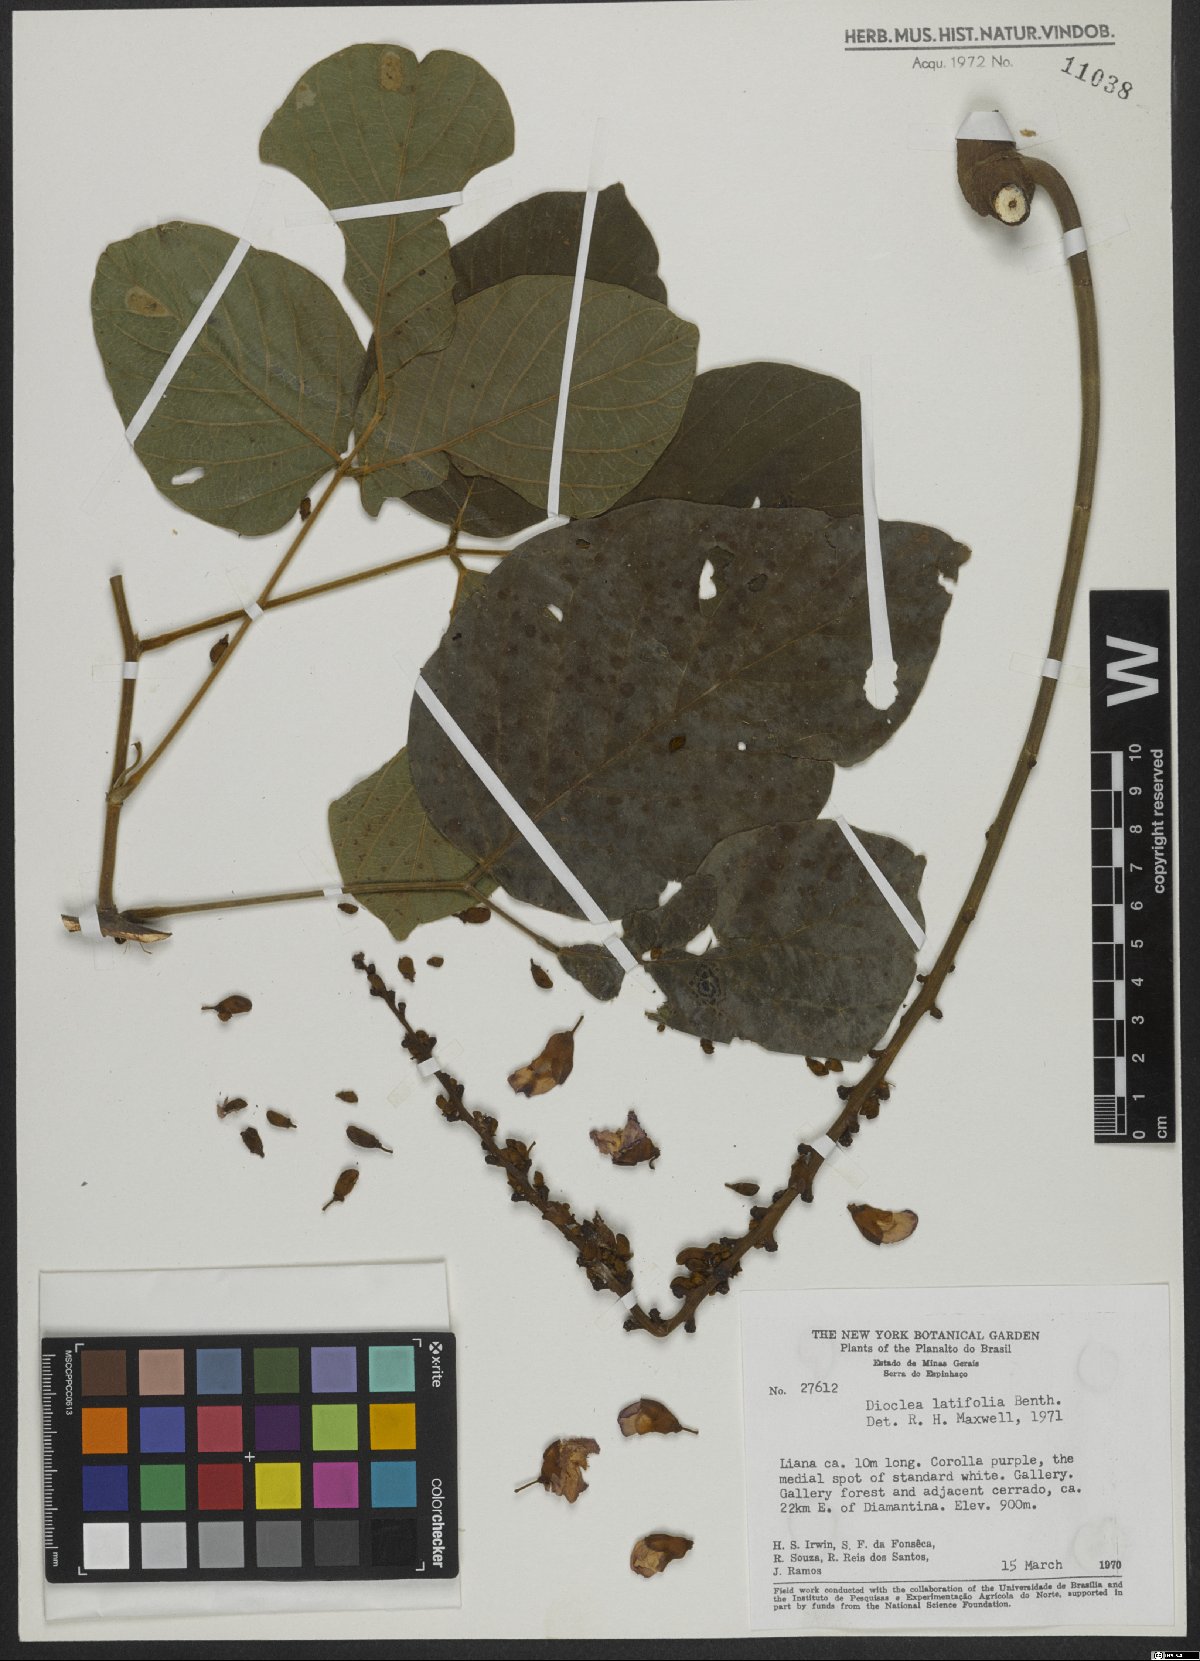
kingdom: Plantae
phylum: Tracheophyta
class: Magnoliopsida
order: Fabales
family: Fabaceae
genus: Macropsychanthus
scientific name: Macropsychanthus latifolius
